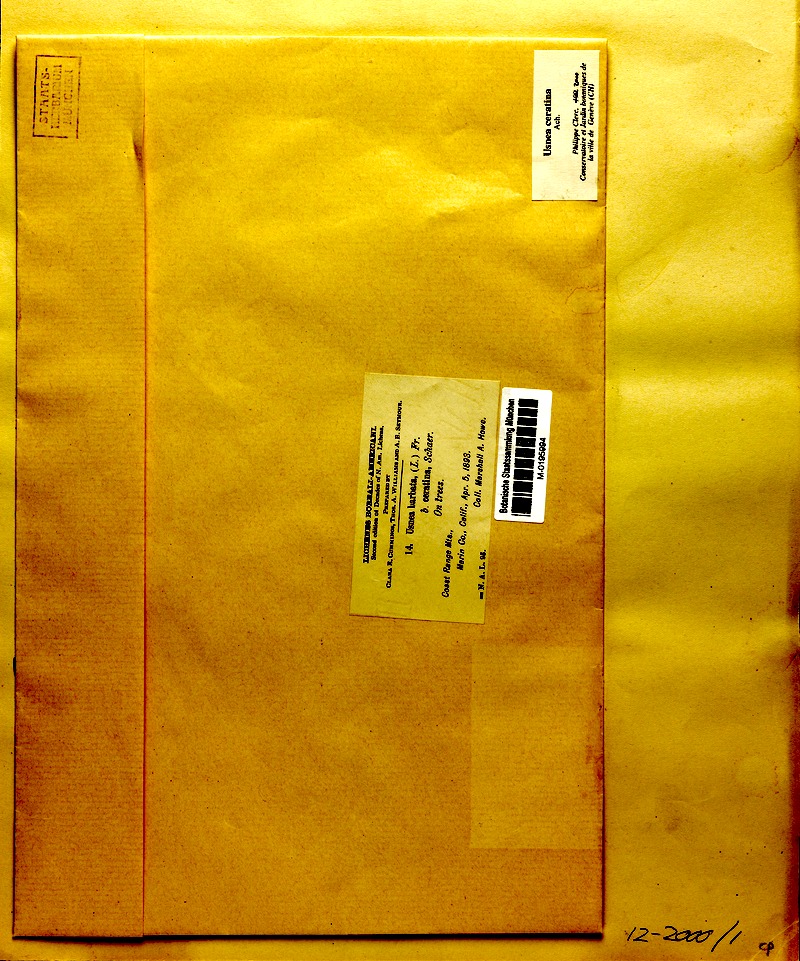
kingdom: Fungi
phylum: Ascomycota
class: Lecanoromycetes
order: Lecanorales
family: Parmeliaceae
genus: Usnea
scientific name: Usnea ceratina
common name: Warty beard lichen
